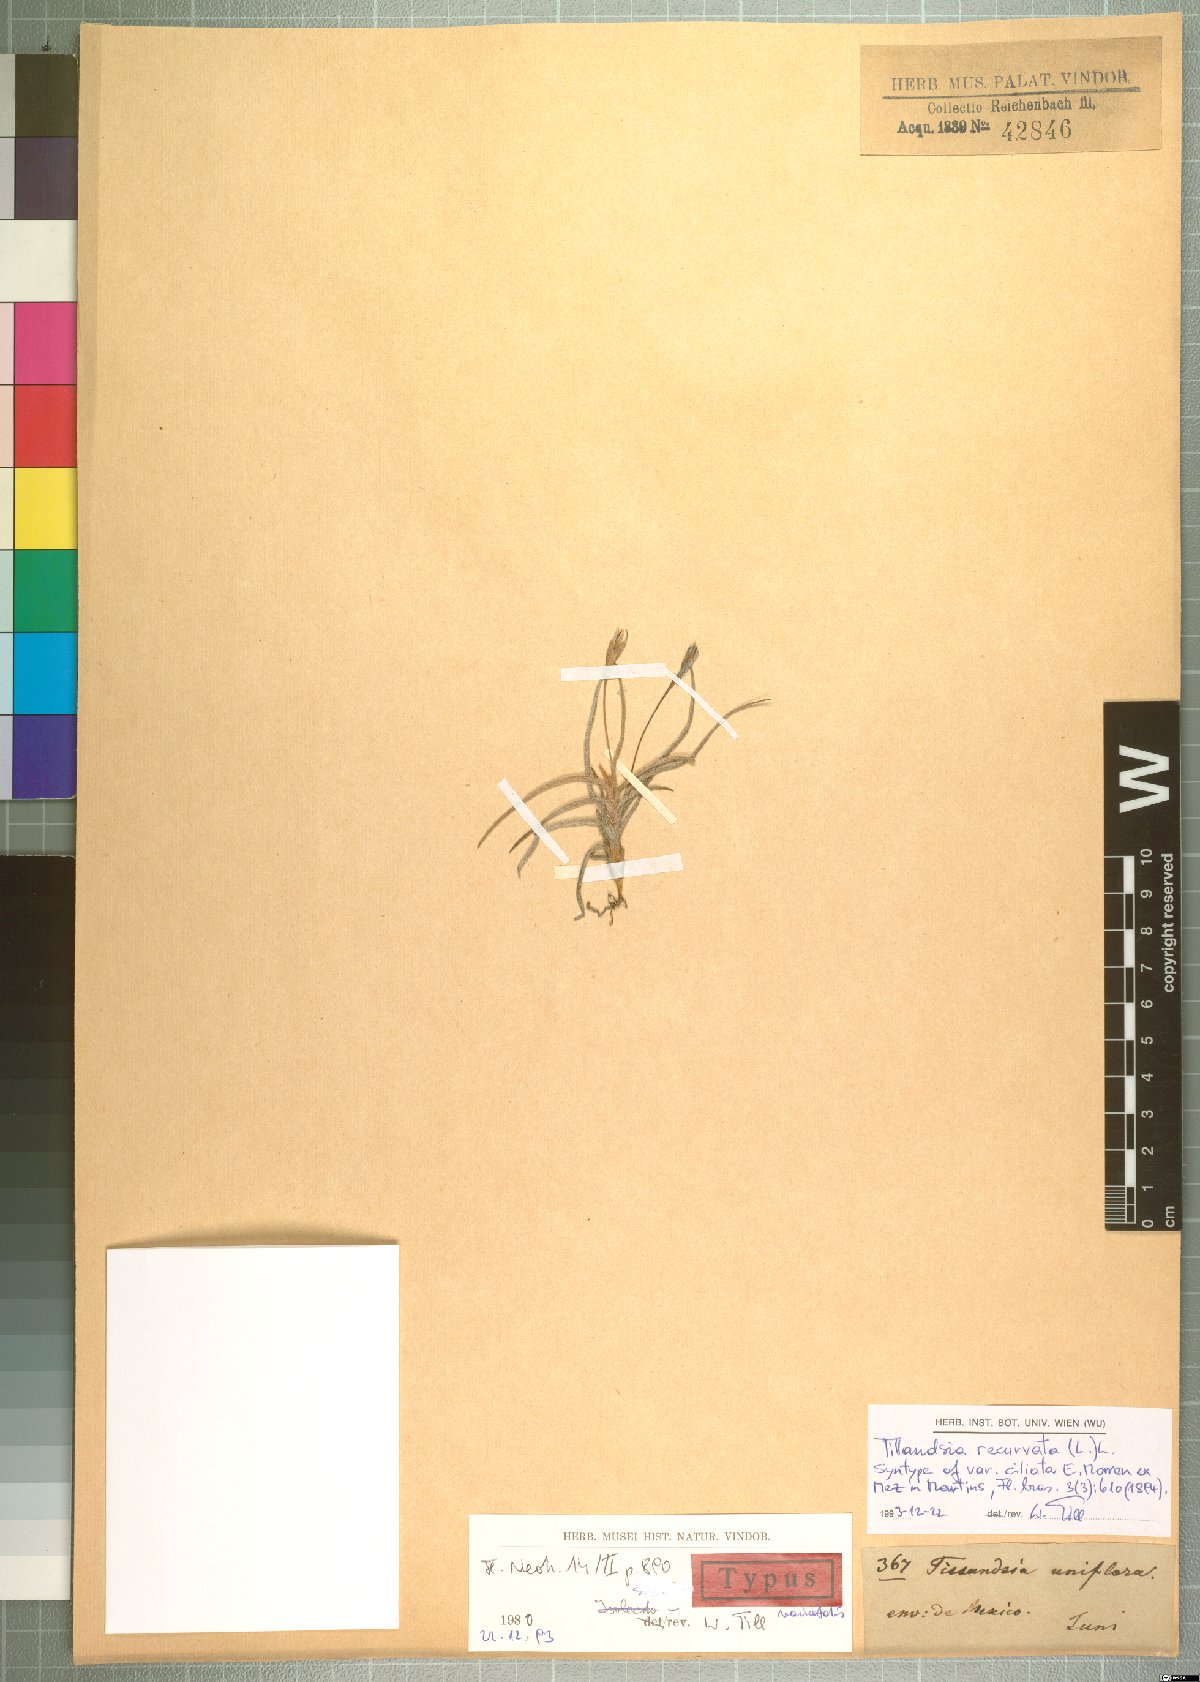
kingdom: Plantae
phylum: Tracheophyta
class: Liliopsida
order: Poales
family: Bromeliaceae
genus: Tillandsia
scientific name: Tillandsia recurvata
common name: Small ballmoss
